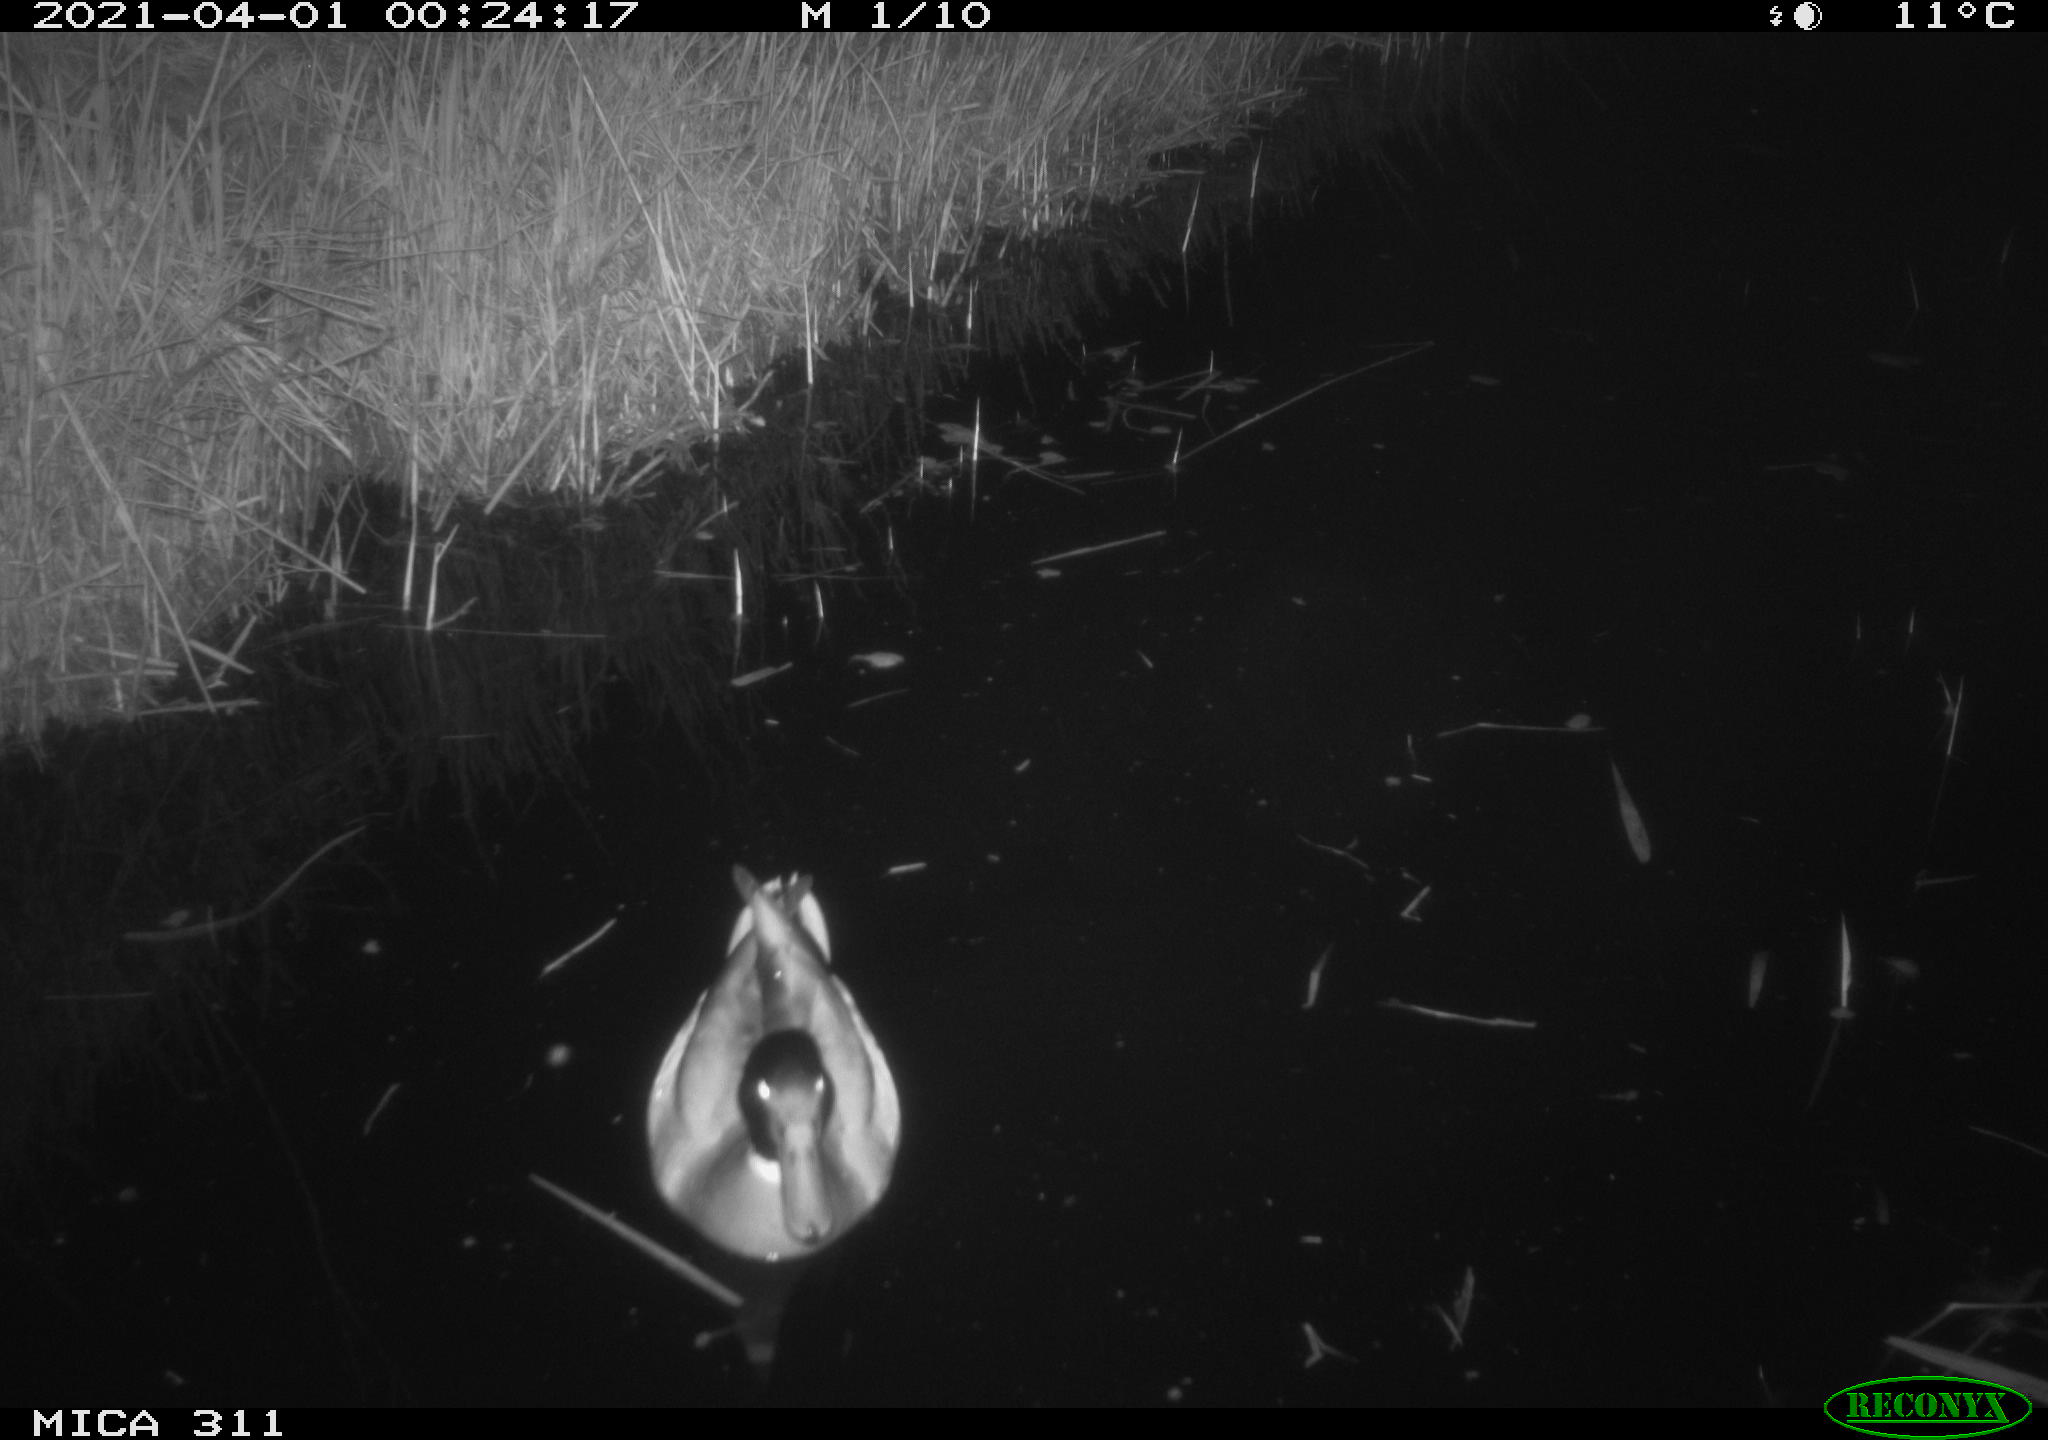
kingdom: Animalia
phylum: Chordata
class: Aves
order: Anseriformes
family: Anatidae
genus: Anas
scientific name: Anas
